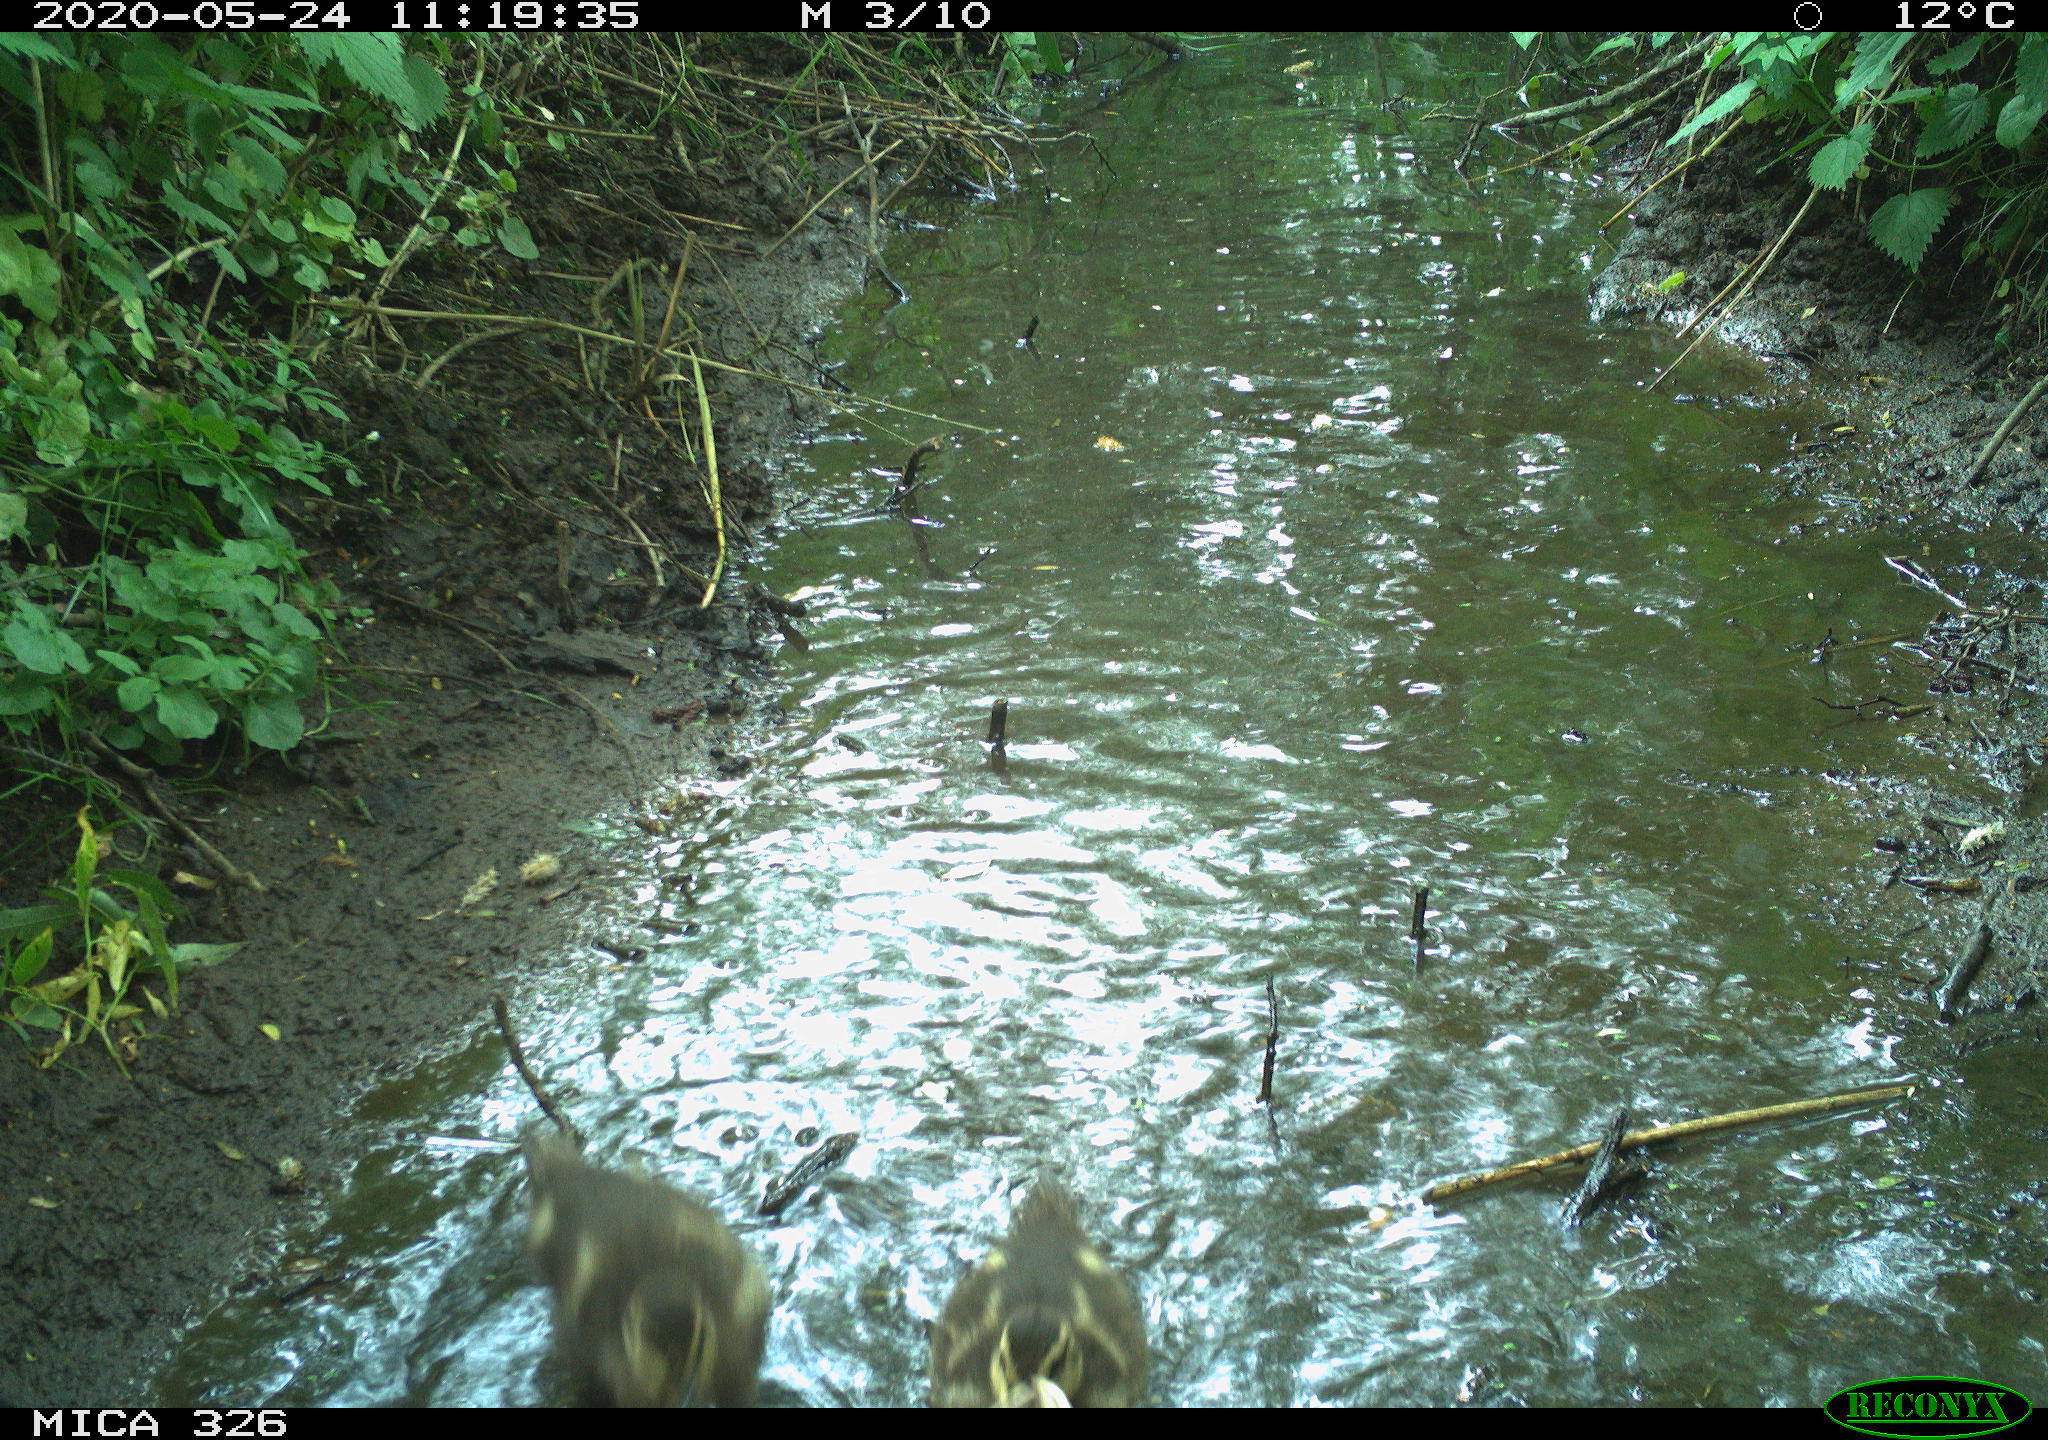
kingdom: Animalia
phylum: Chordata
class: Aves
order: Anseriformes
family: Anatidae
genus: Anas
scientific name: Anas platyrhynchos
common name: Mallard
